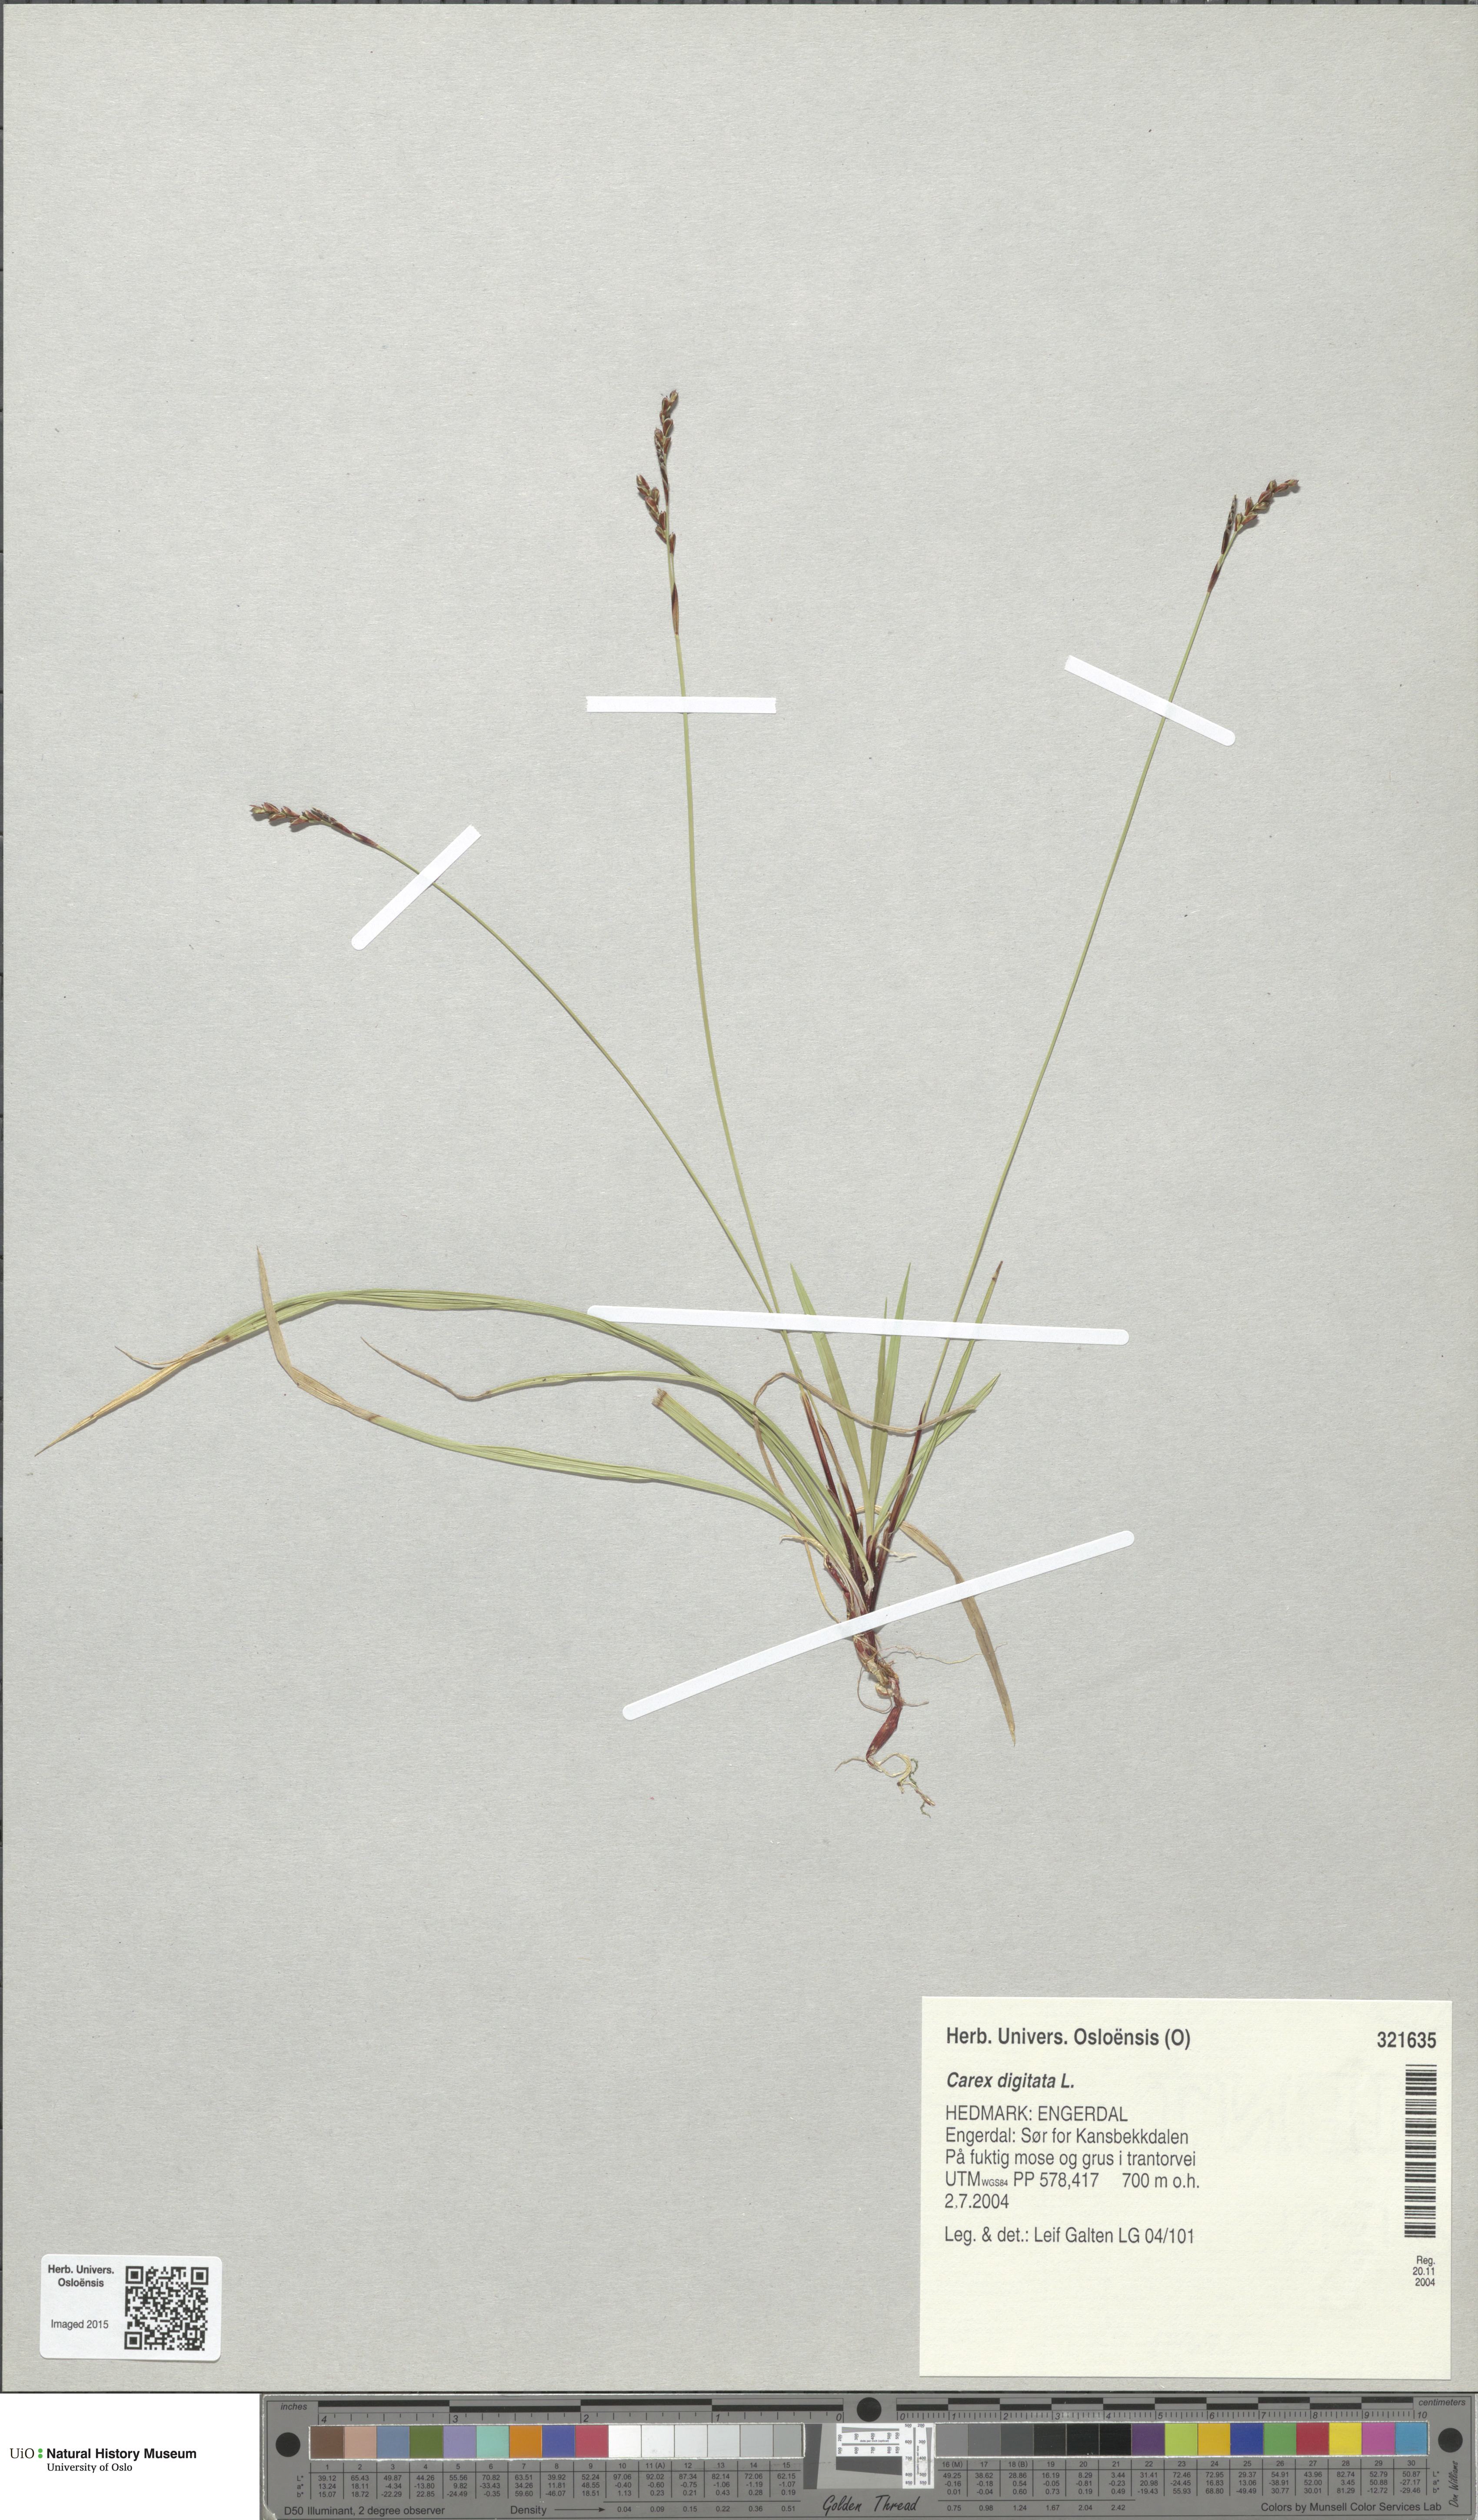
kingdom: Plantae
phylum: Tracheophyta
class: Liliopsida
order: Poales
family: Cyperaceae
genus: Carex
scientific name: Carex digitata
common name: Fingered sedge
